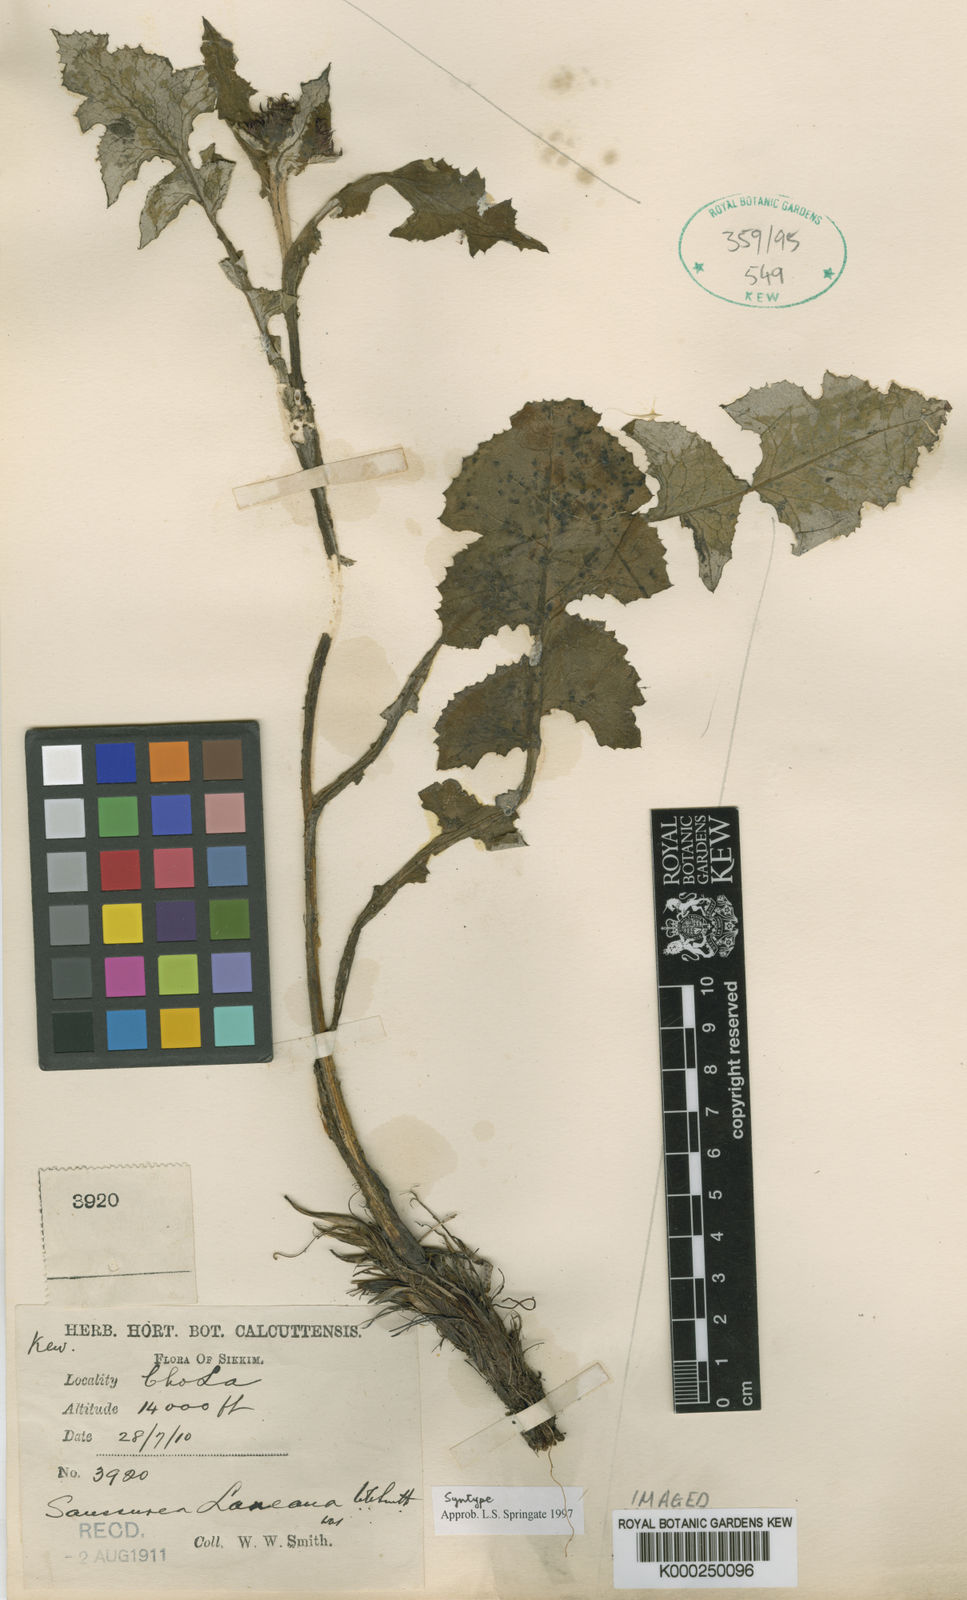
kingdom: Plantae
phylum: Tracheophyta
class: Magnoliopsida
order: Asterales
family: Asteraceae
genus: Saussurea
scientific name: Saussurea laneana
